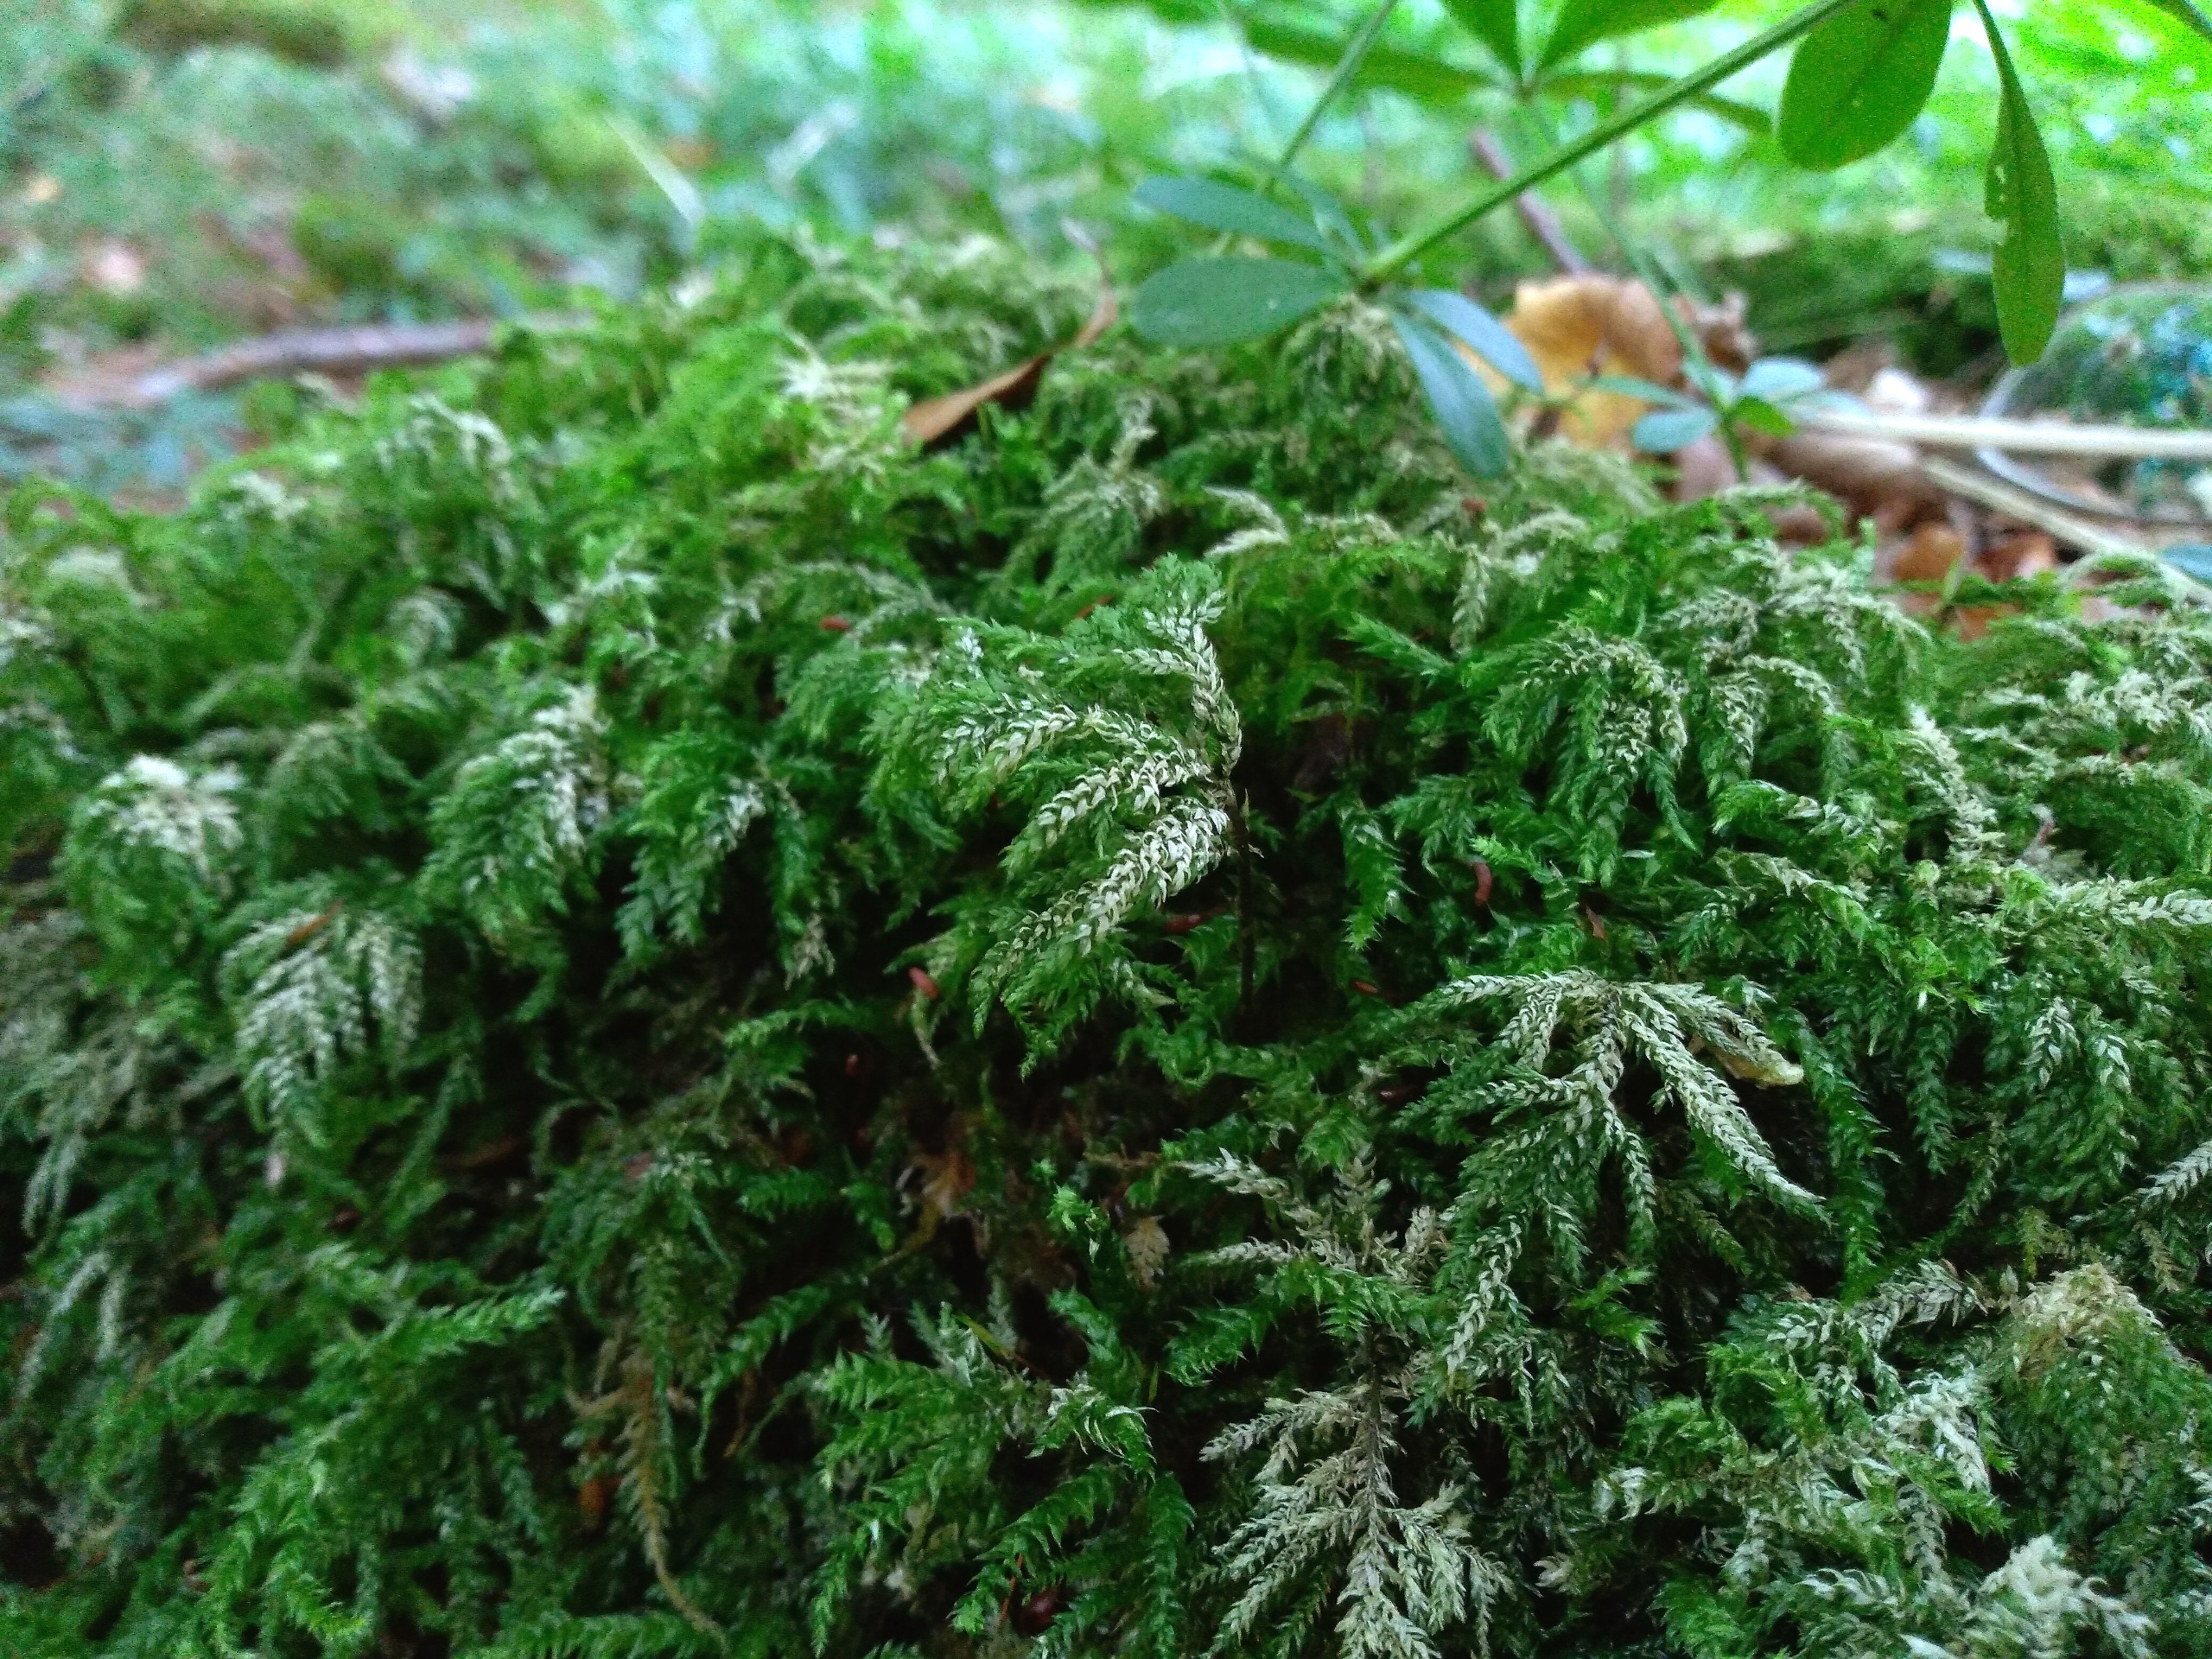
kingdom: Plantae
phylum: Bryophyta
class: Bryopsida
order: Hypnales
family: Neckeraceae
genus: Thamnobryum
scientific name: Thamnobryum alopecurum
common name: Mat bækkost
